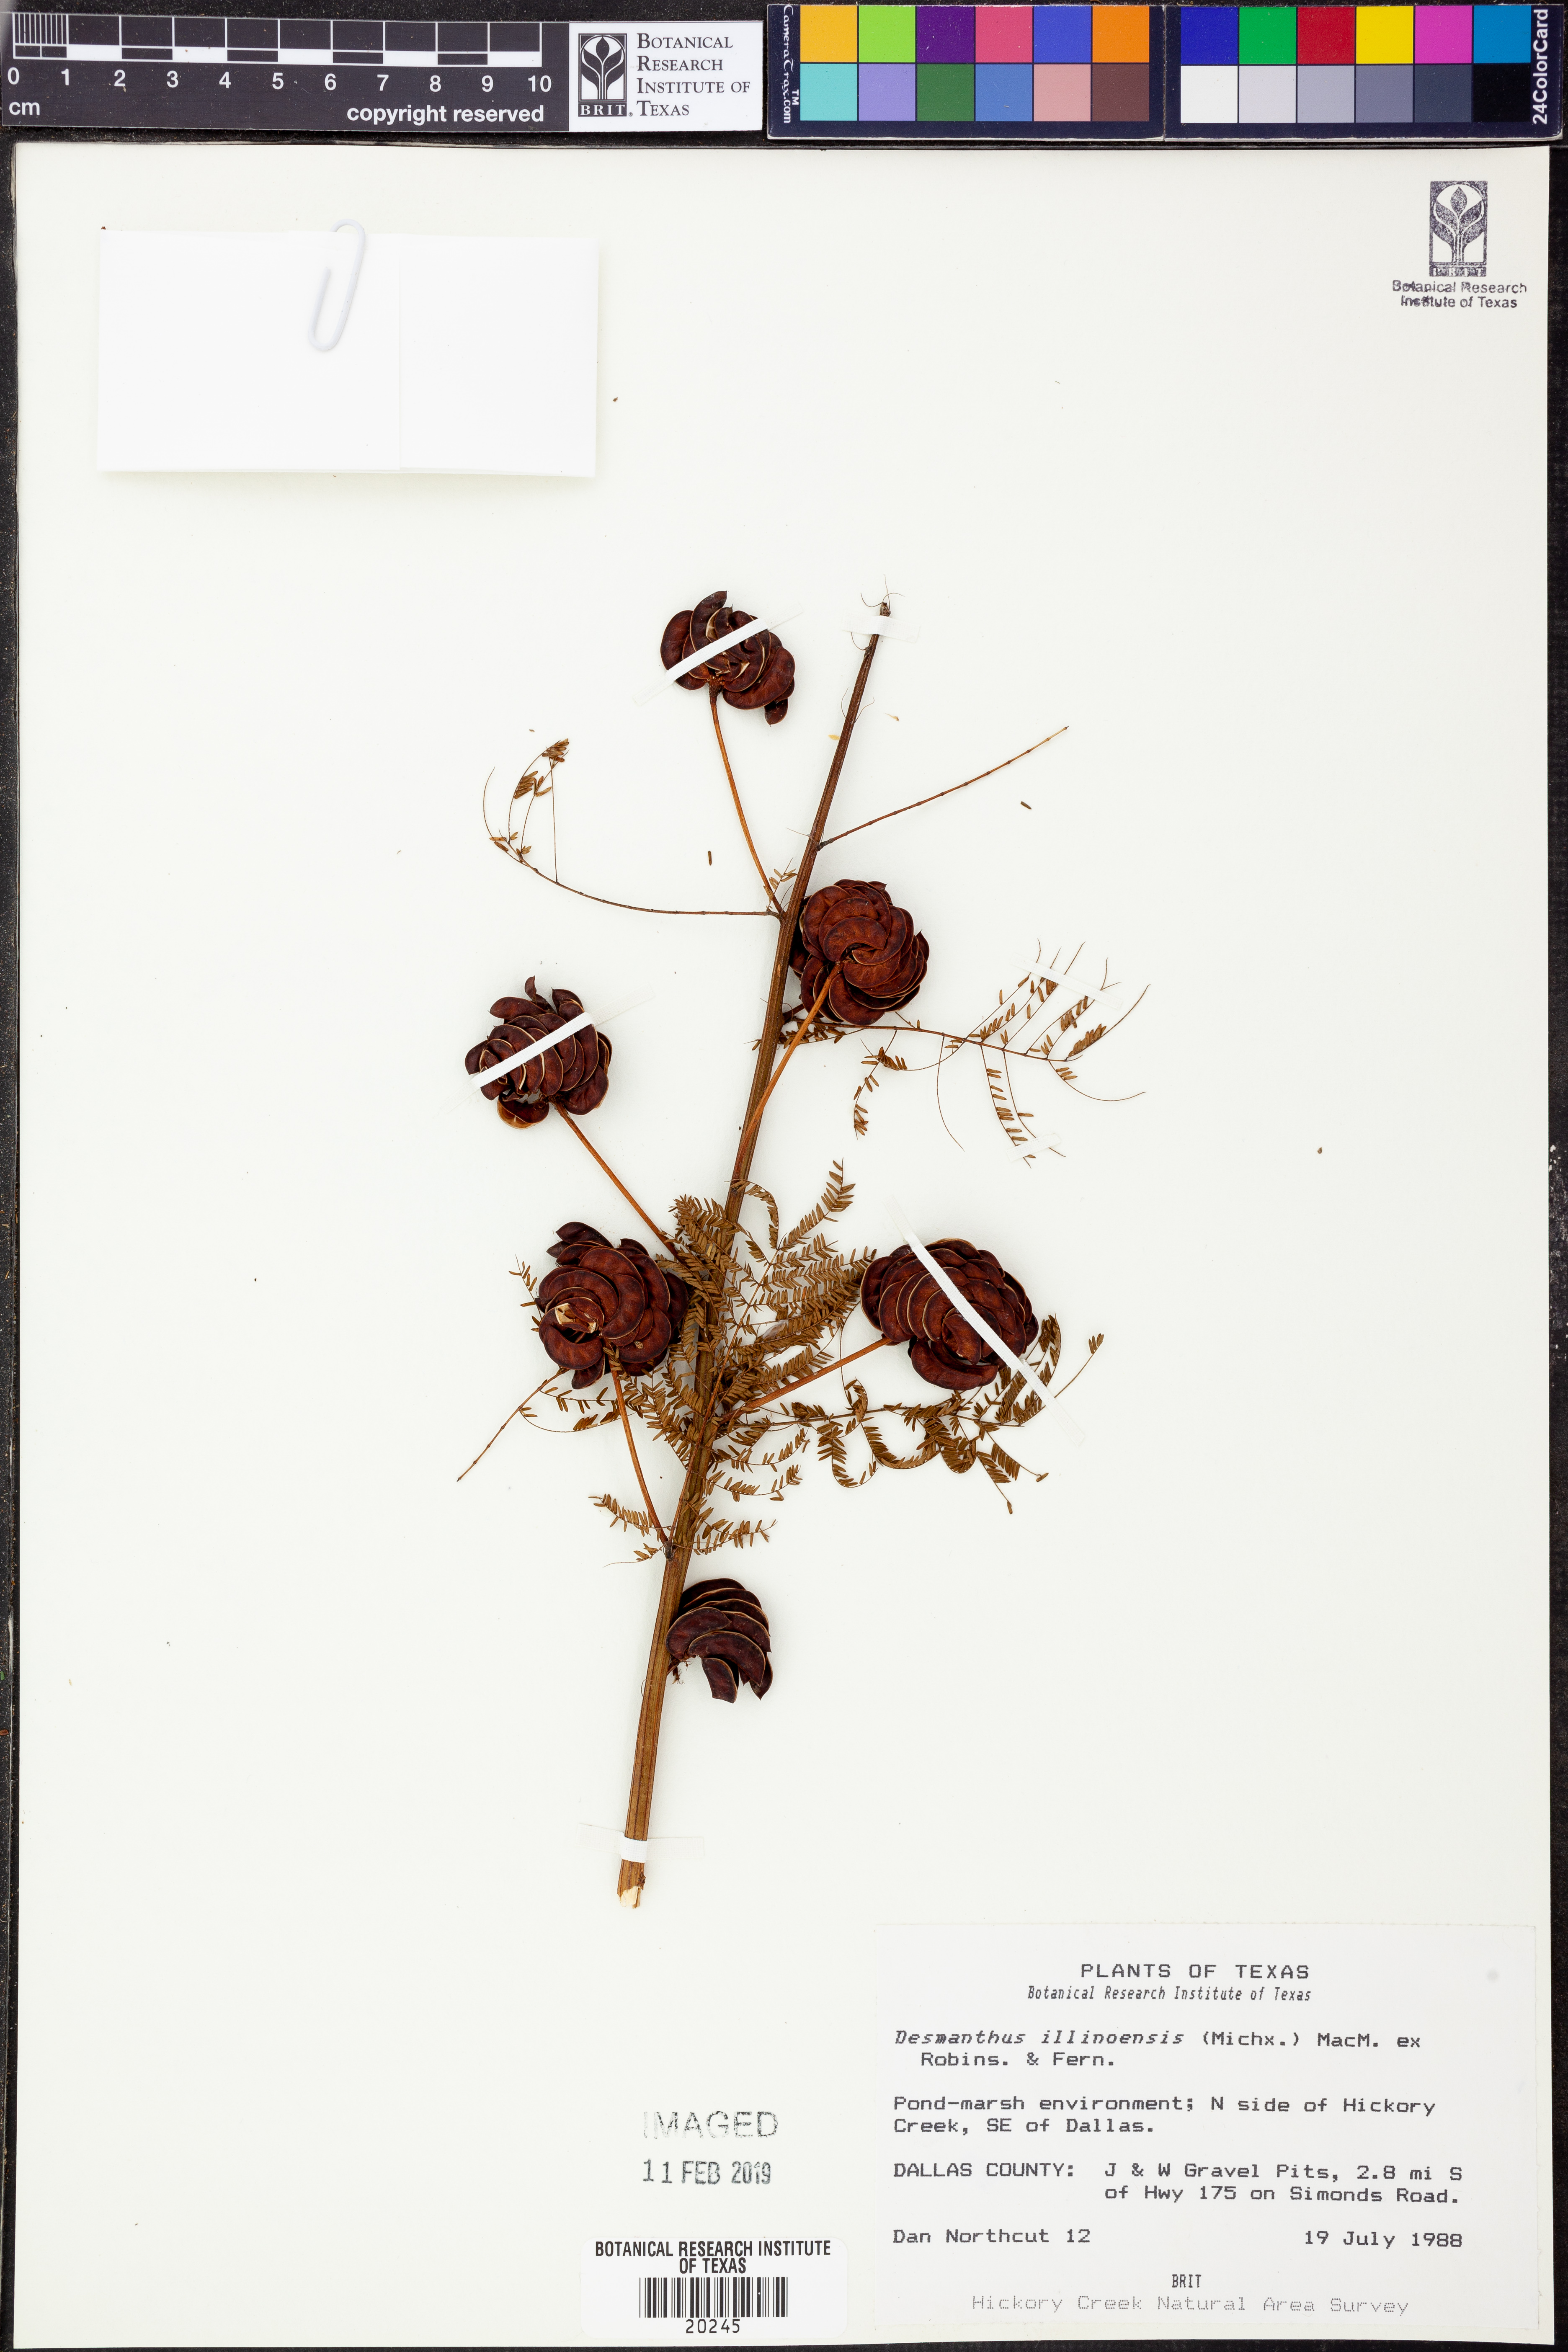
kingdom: Plantae
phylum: Tracheophyta
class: Magnoliopsida
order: Fabales
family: Fabaceae
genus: Desmanthus
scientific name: Desmanthus illinoensis
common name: Illinois bundle-flower
